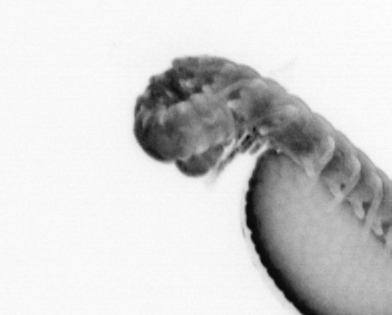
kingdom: Animalia
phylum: Annelida
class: Polychaeta
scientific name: Polychaeta
